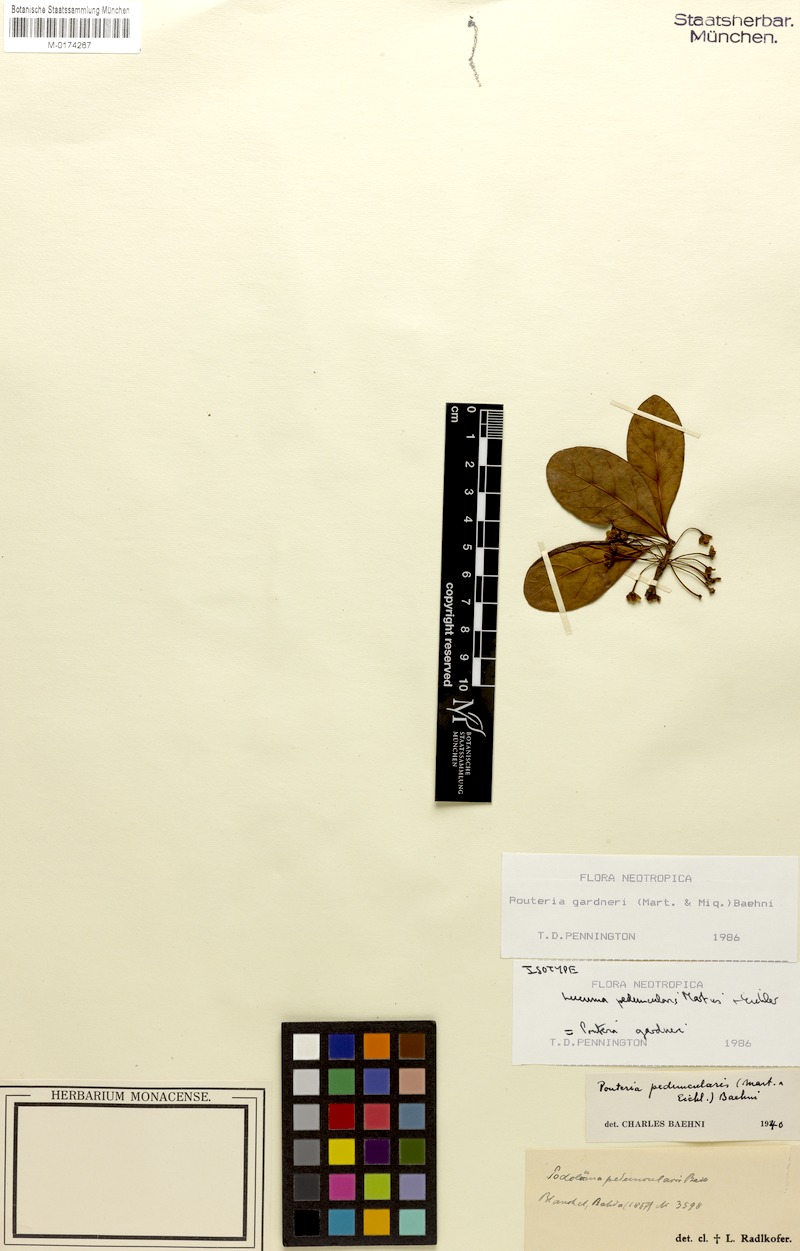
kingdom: Plantae
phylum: Tracheophyta
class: Magnoliopsida
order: Ericales
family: Sapotaceae
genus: Pouteria
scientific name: Pouteria gardneri
